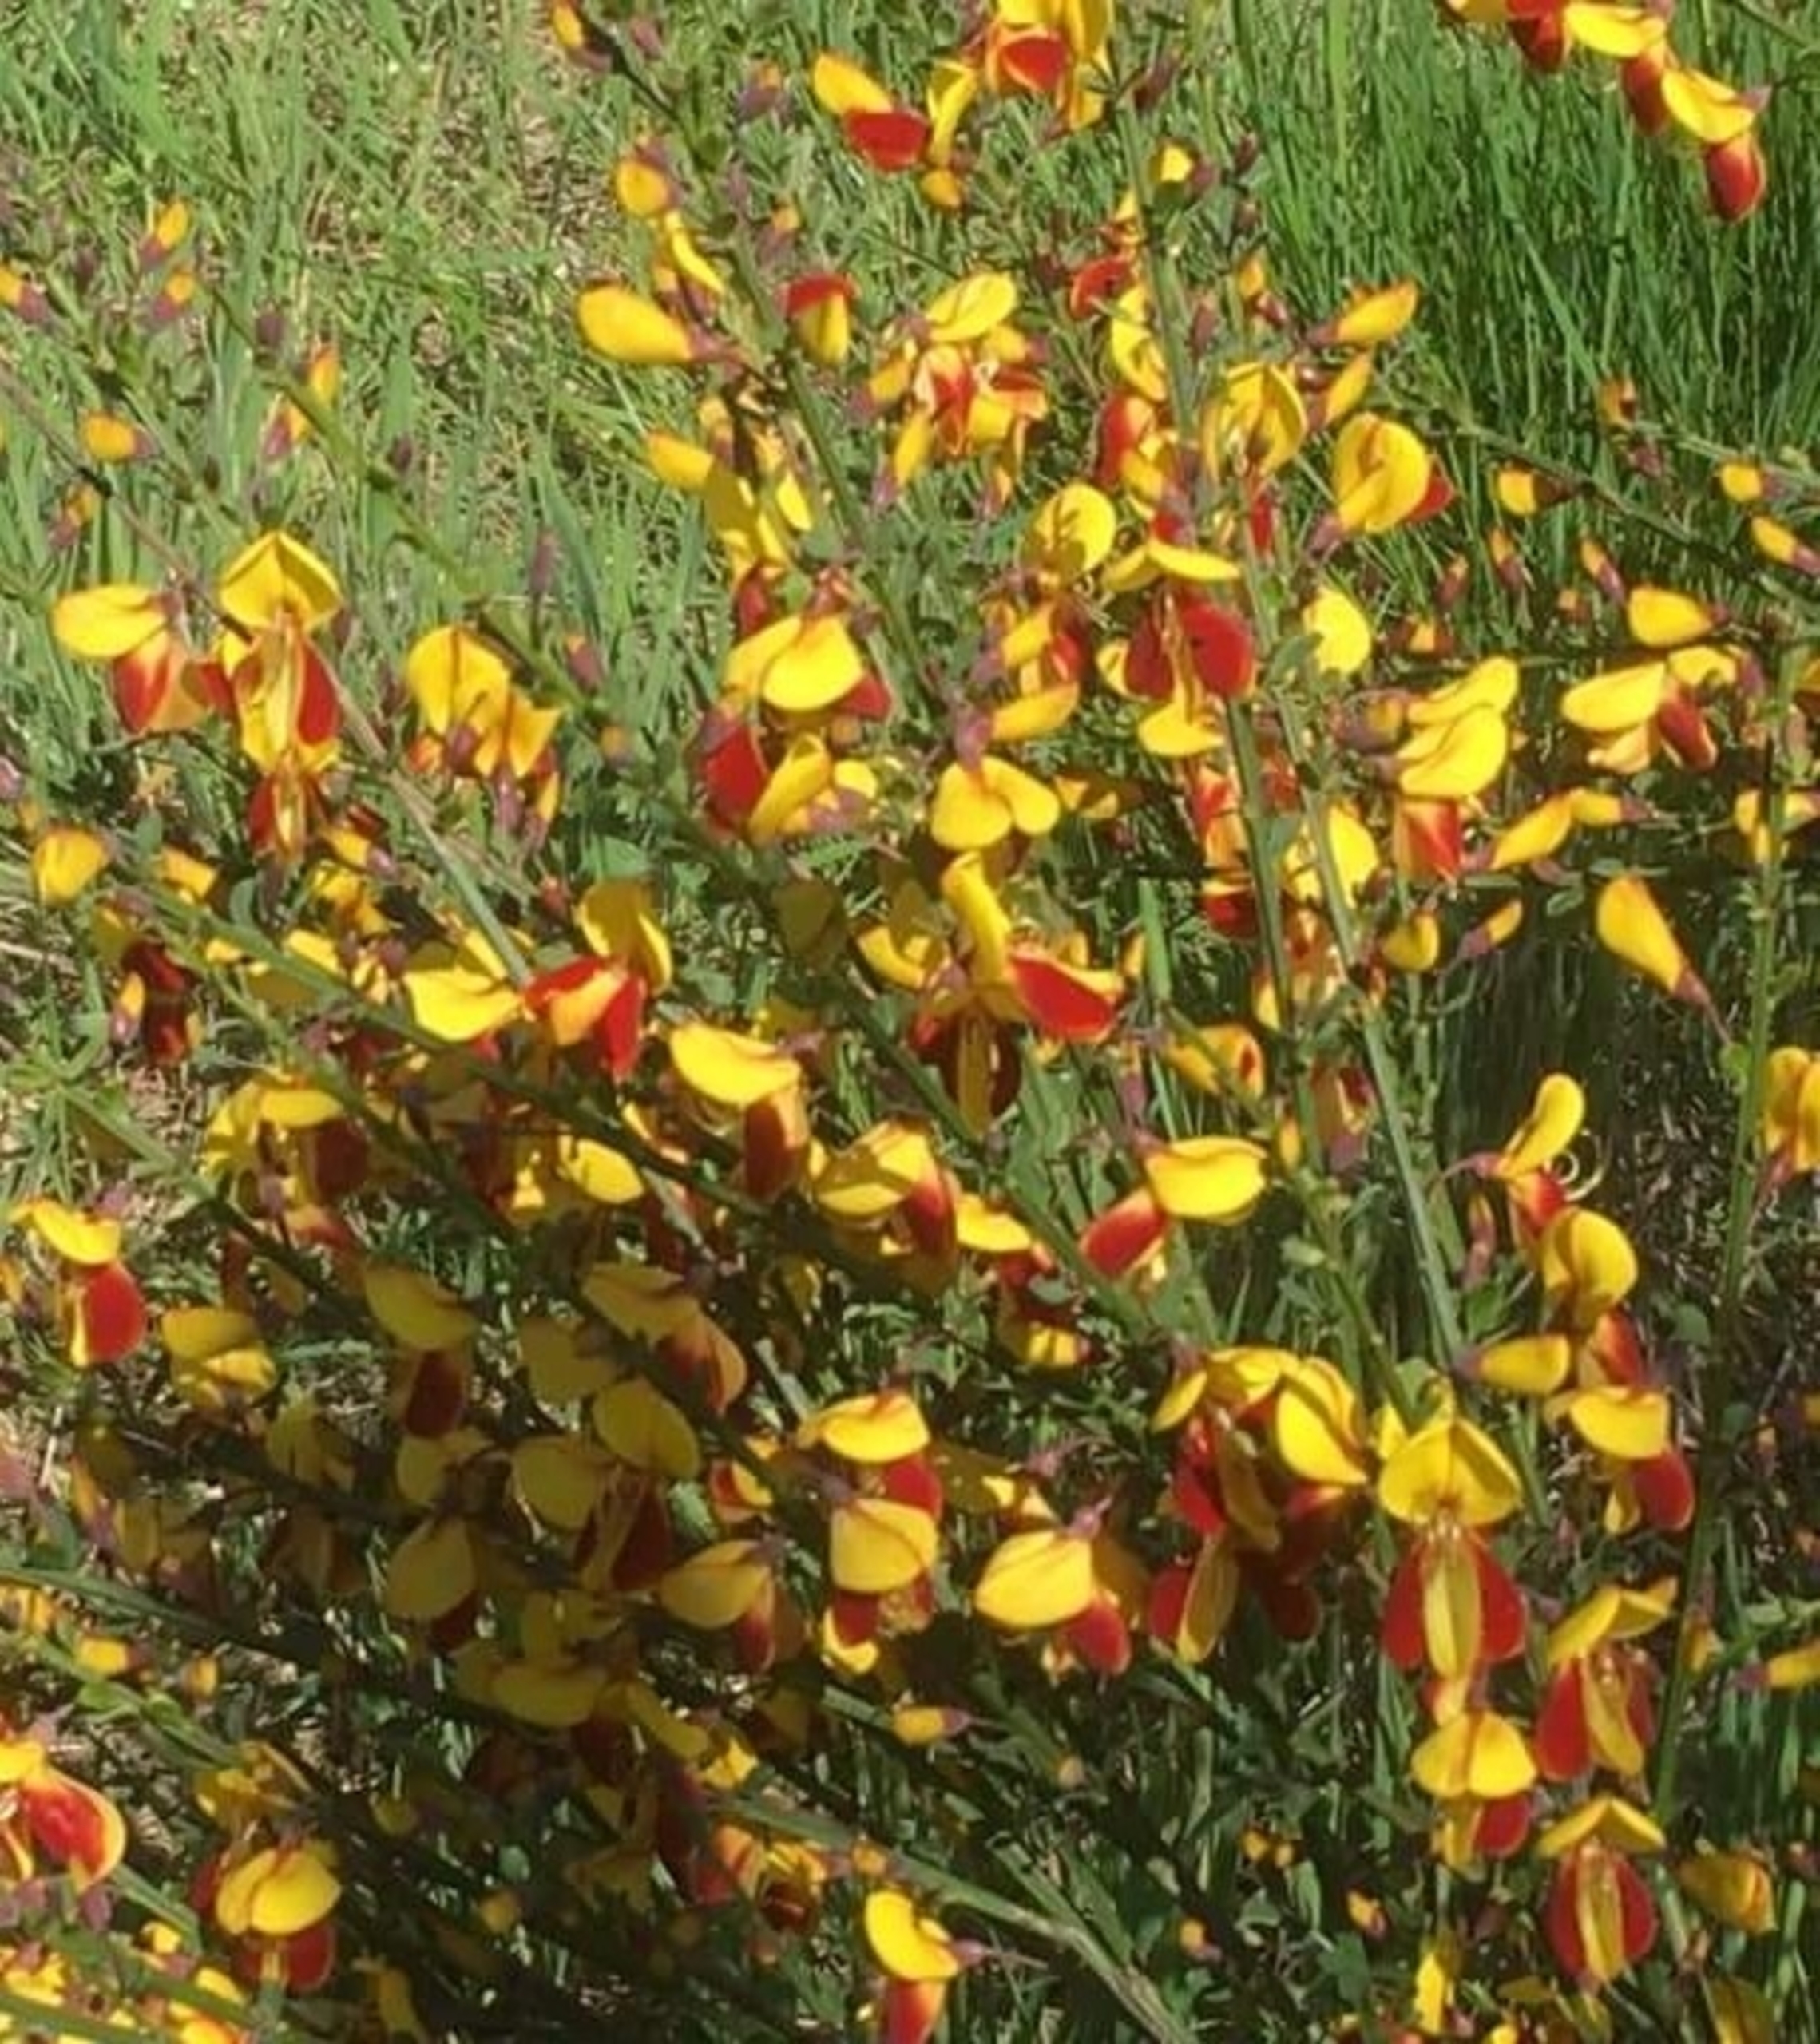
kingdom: Plantae
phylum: Tracheophyta
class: Magnoliopsida
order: Fabales
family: Fabaceae
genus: Cytisus
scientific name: Cytisus scoparius
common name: Almindelig gyvel
